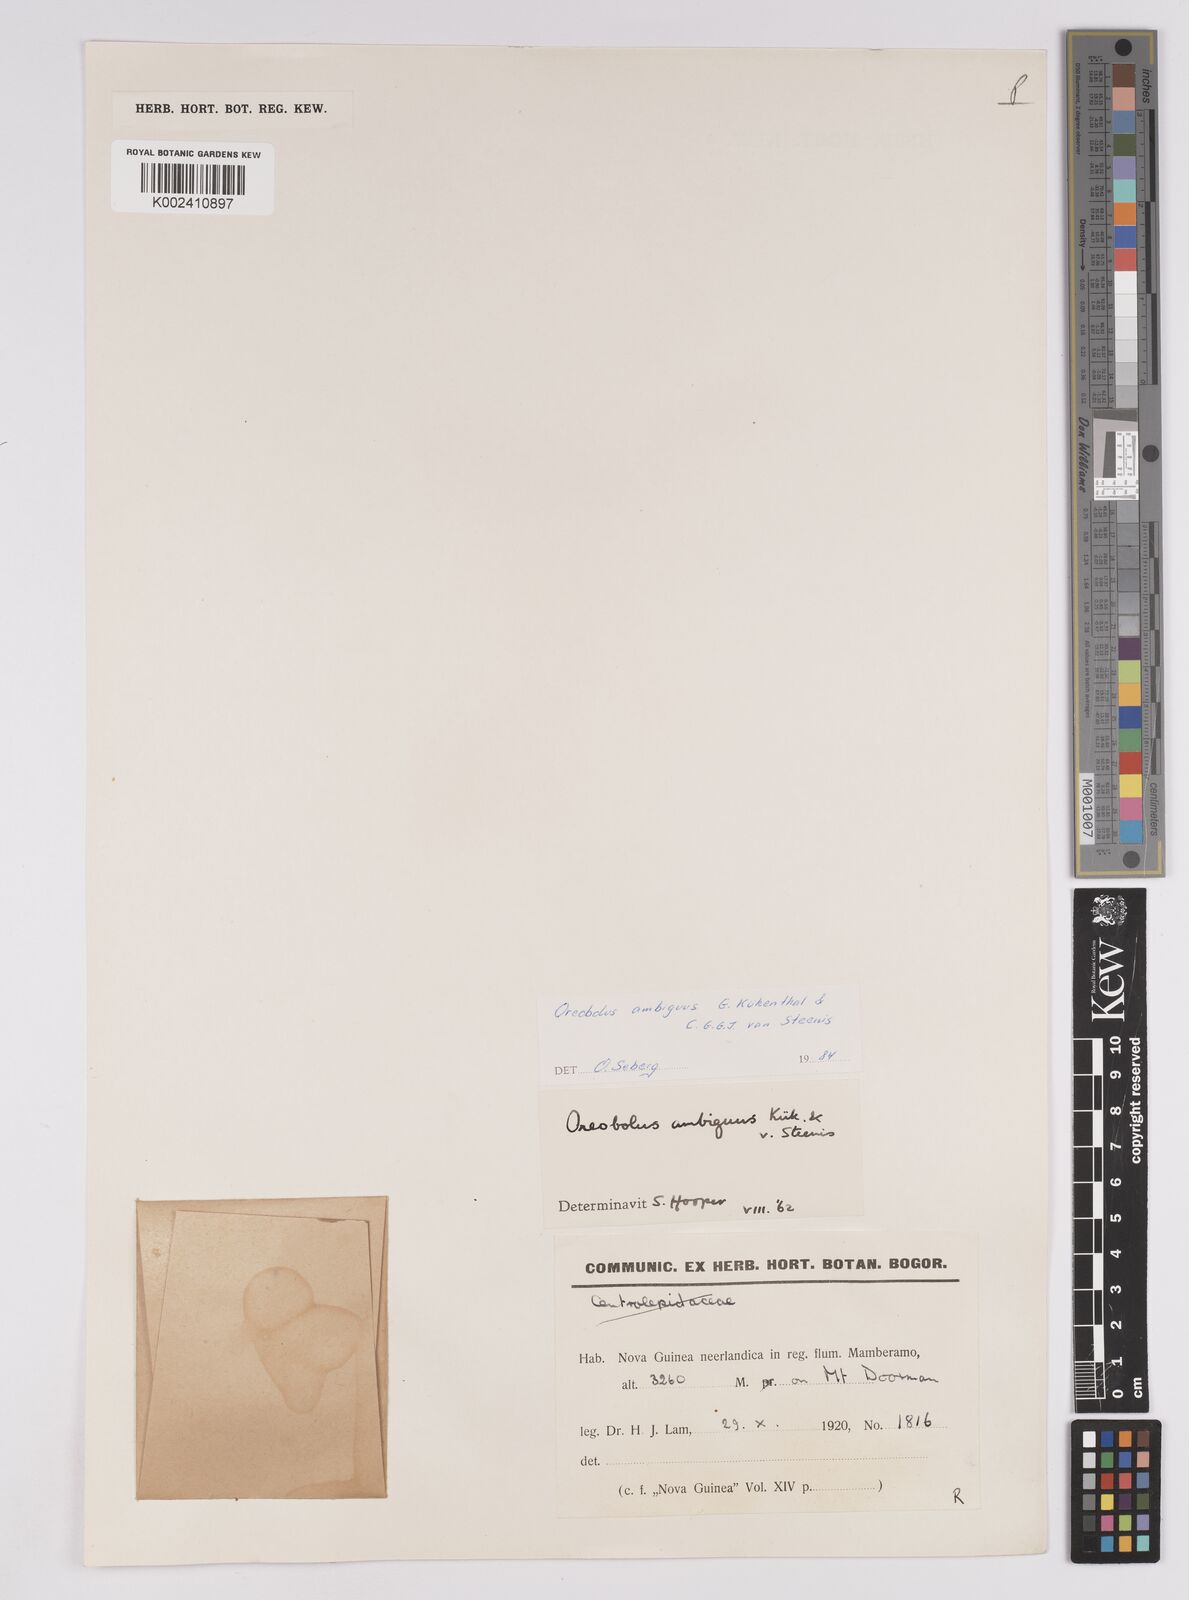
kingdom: Plantae
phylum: Tracheophyta
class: Liliopsida
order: Poales
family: Cyperaceae
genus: Oreobolus
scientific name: Oreobolus ambiguus
